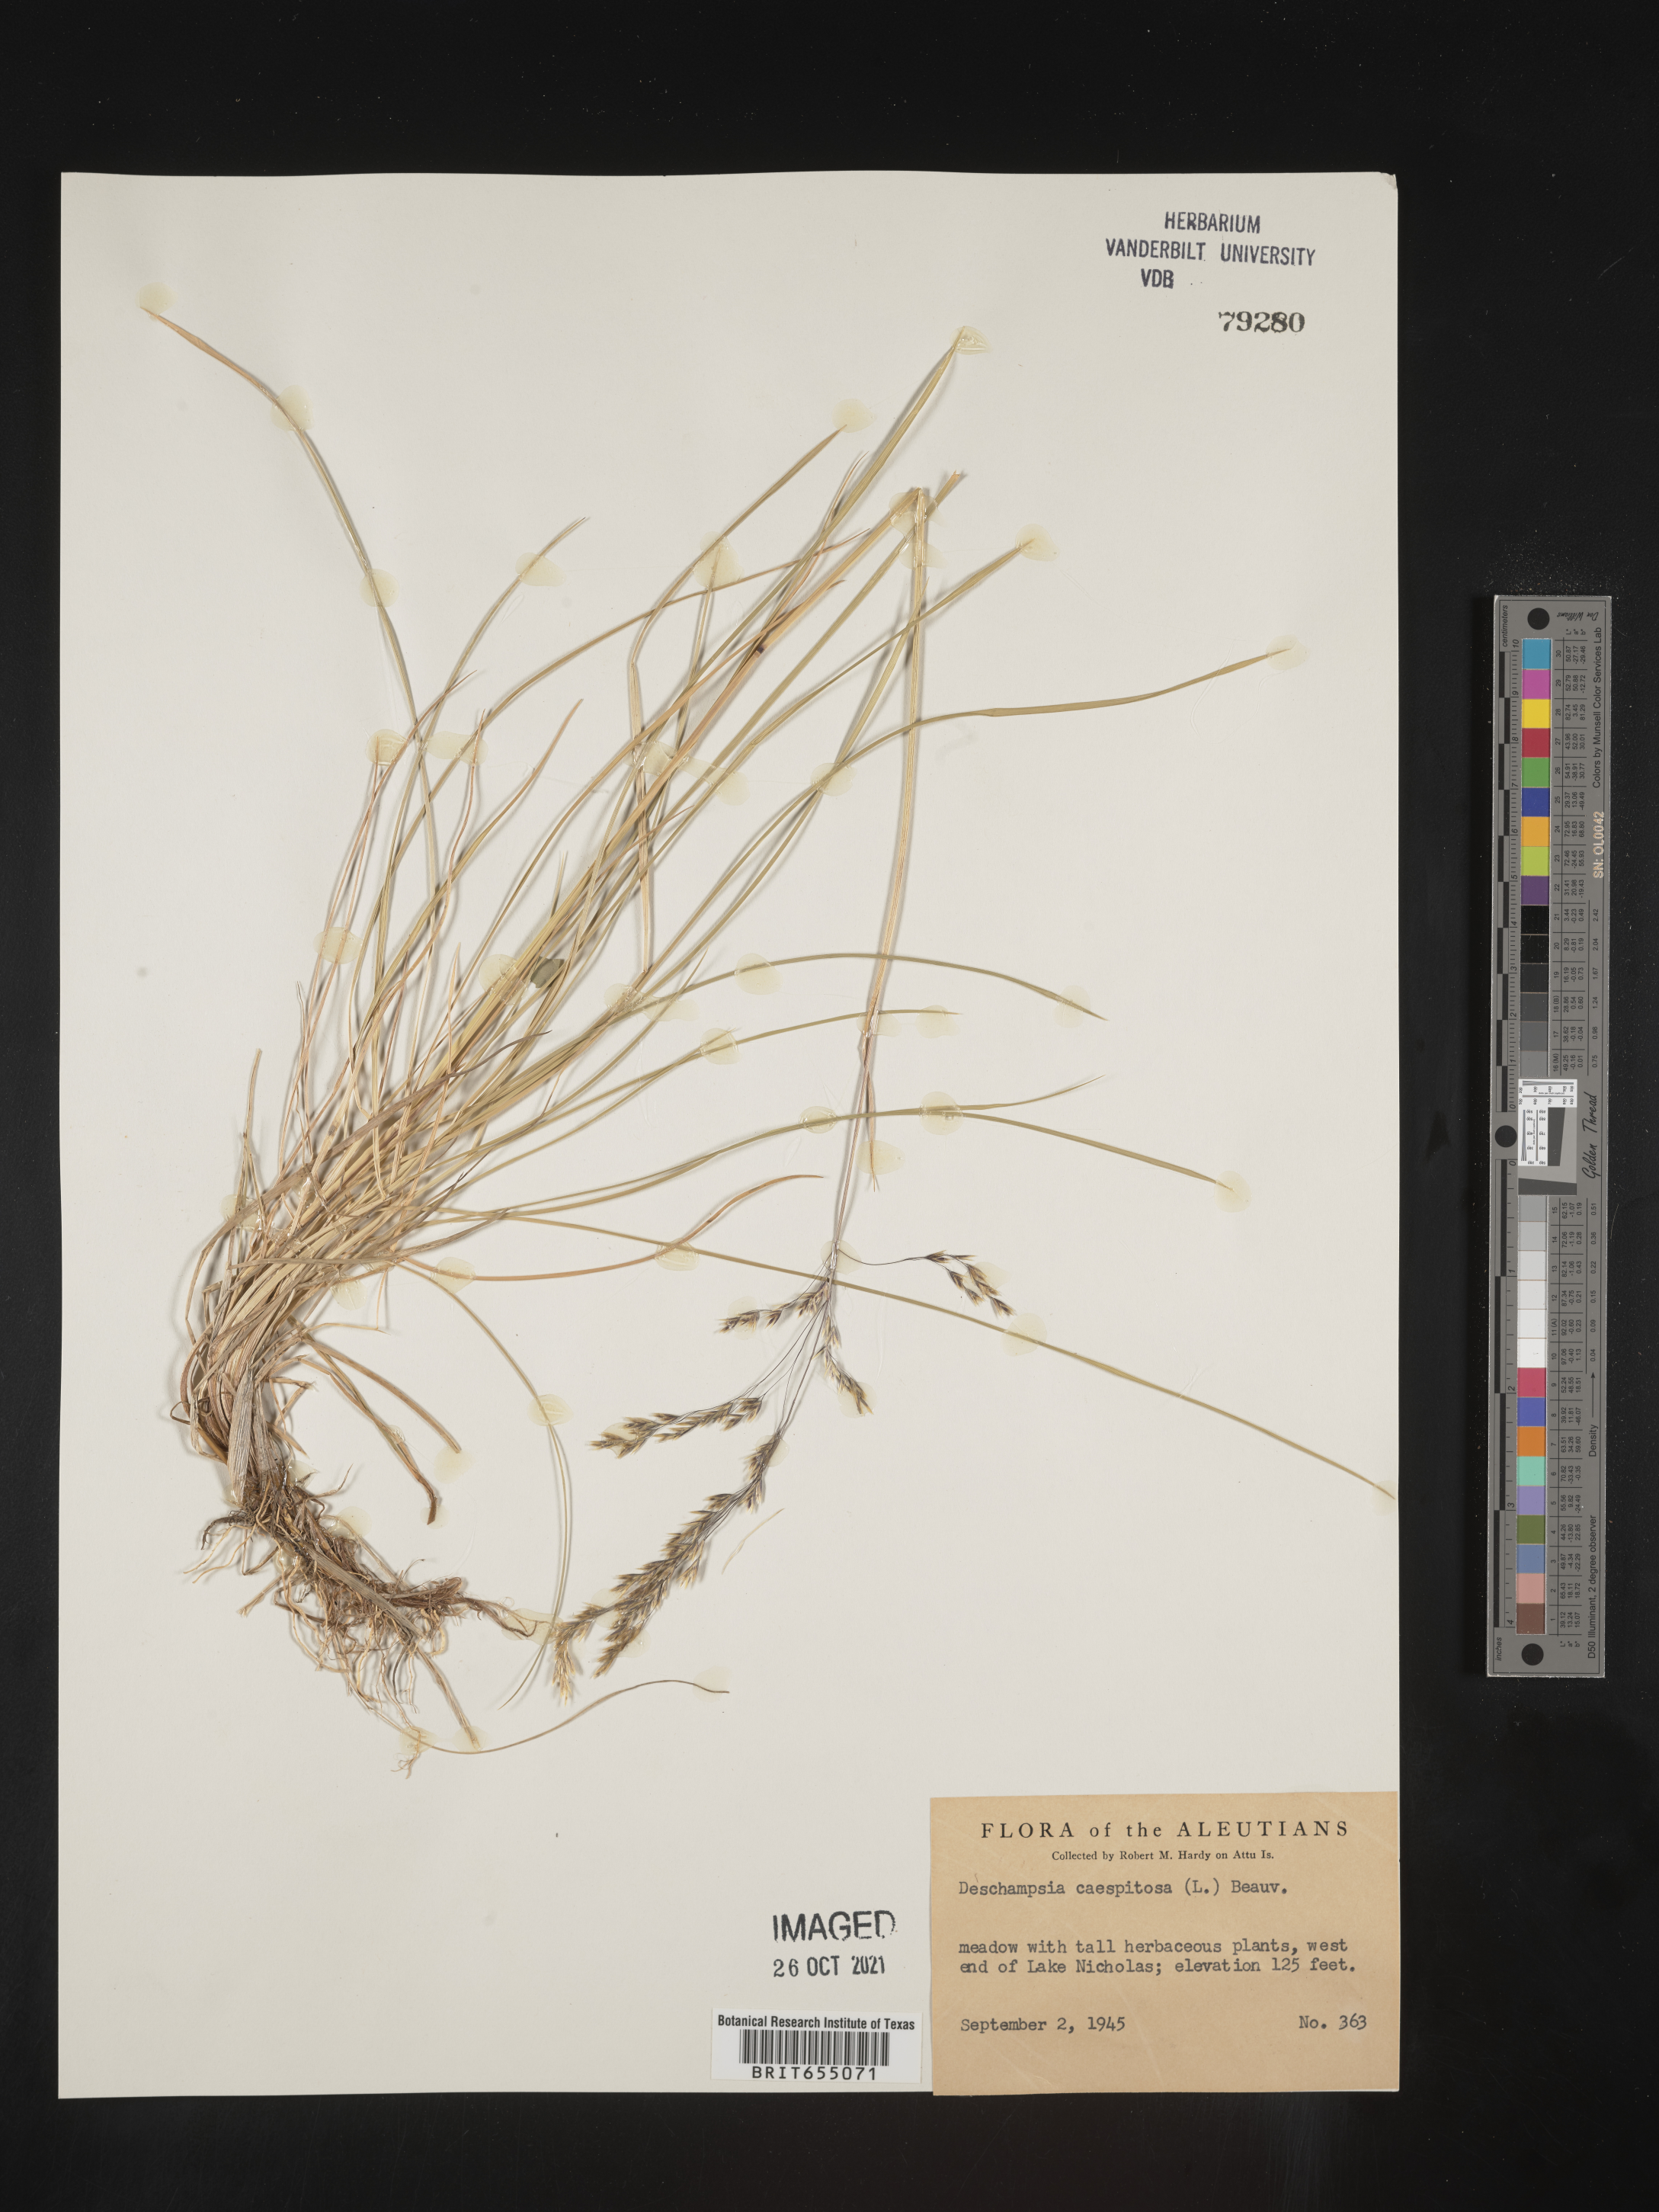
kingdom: Plantae
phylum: Tracheophyta
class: Liliopsida
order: Poales
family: Poaceae
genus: Deschampsia
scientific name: Deschampsia
